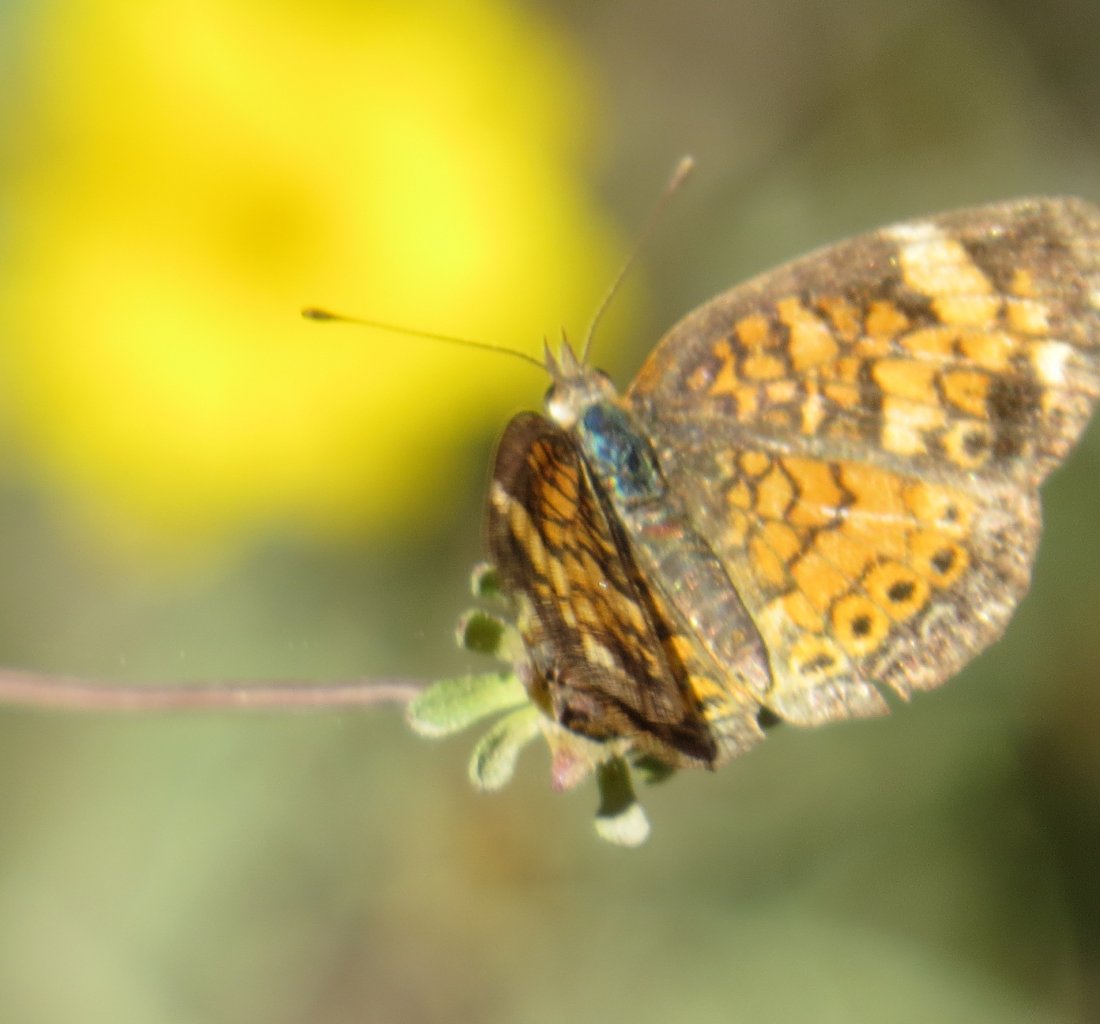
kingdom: Animalia
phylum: Arthropoda
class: Insecta
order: Lepidoptera
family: Nymphalidae
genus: Phyciodes
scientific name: Phyciodes phaon
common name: Phaon Crescent
